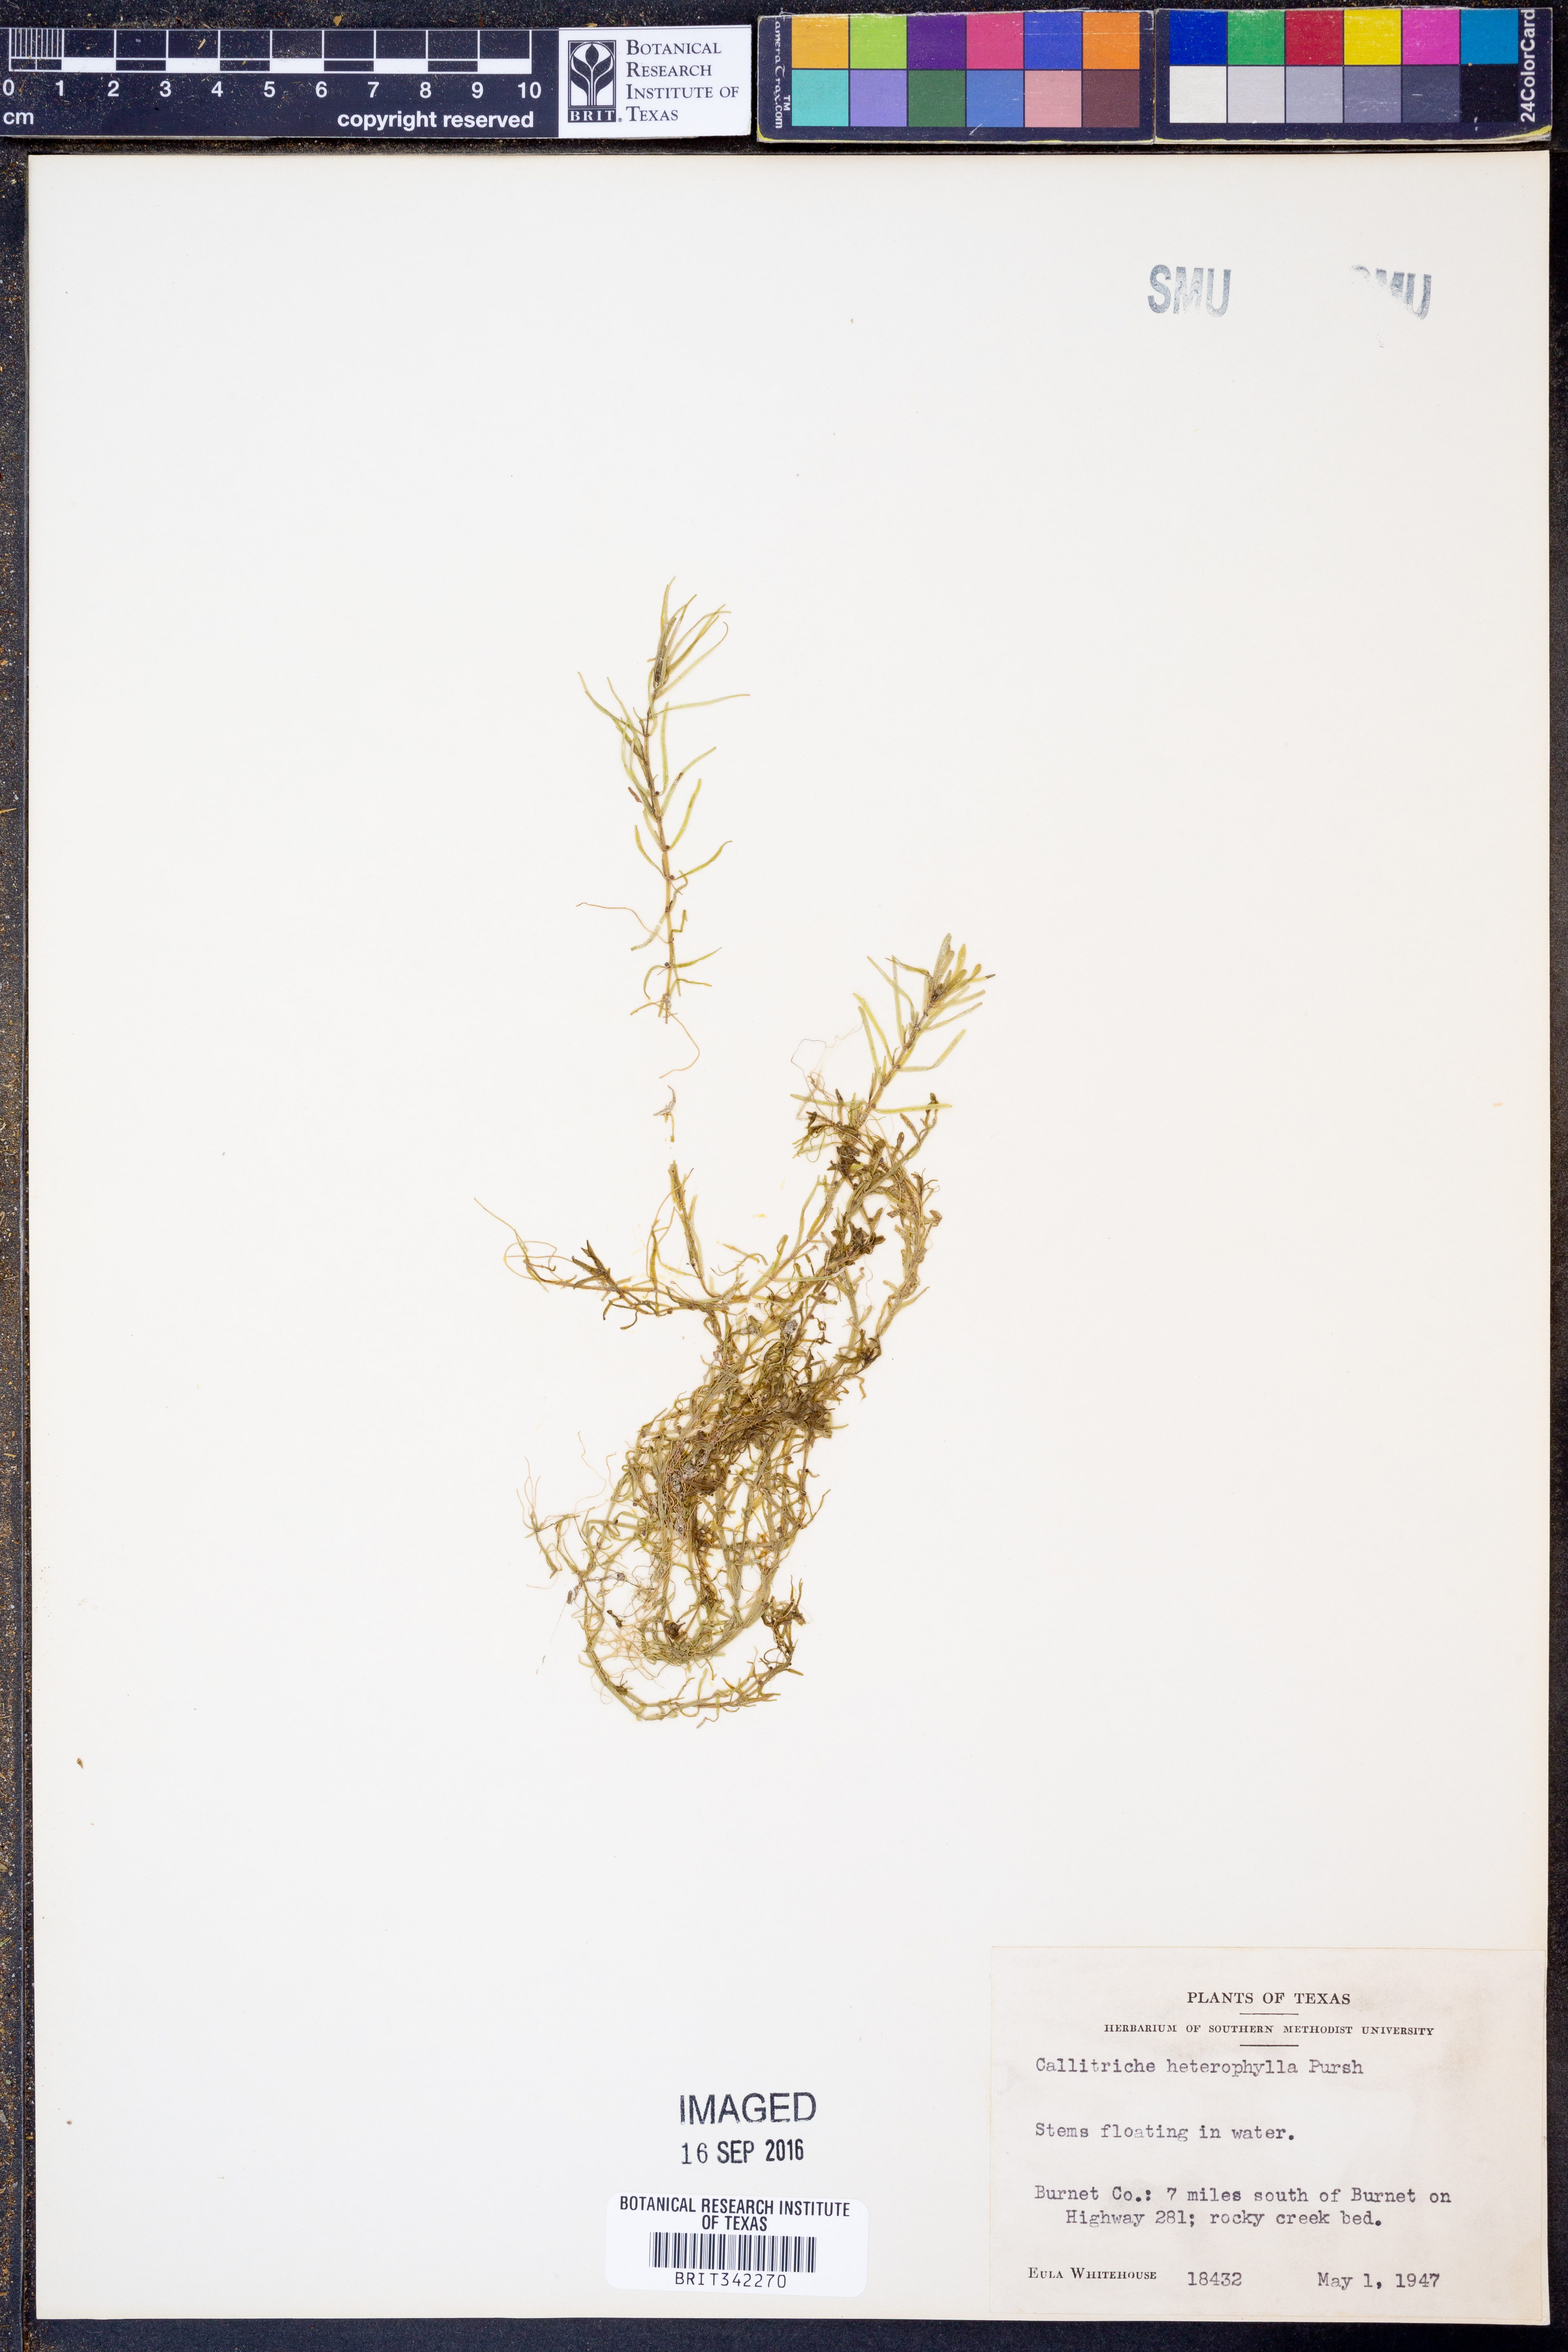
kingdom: Plantae
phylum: Tracheophyta
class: Magnoliopsida
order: Lamiales
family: Plantaginaceae
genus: Callitriche
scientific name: Callitriche heterophylla
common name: Two-headed water-starwort
